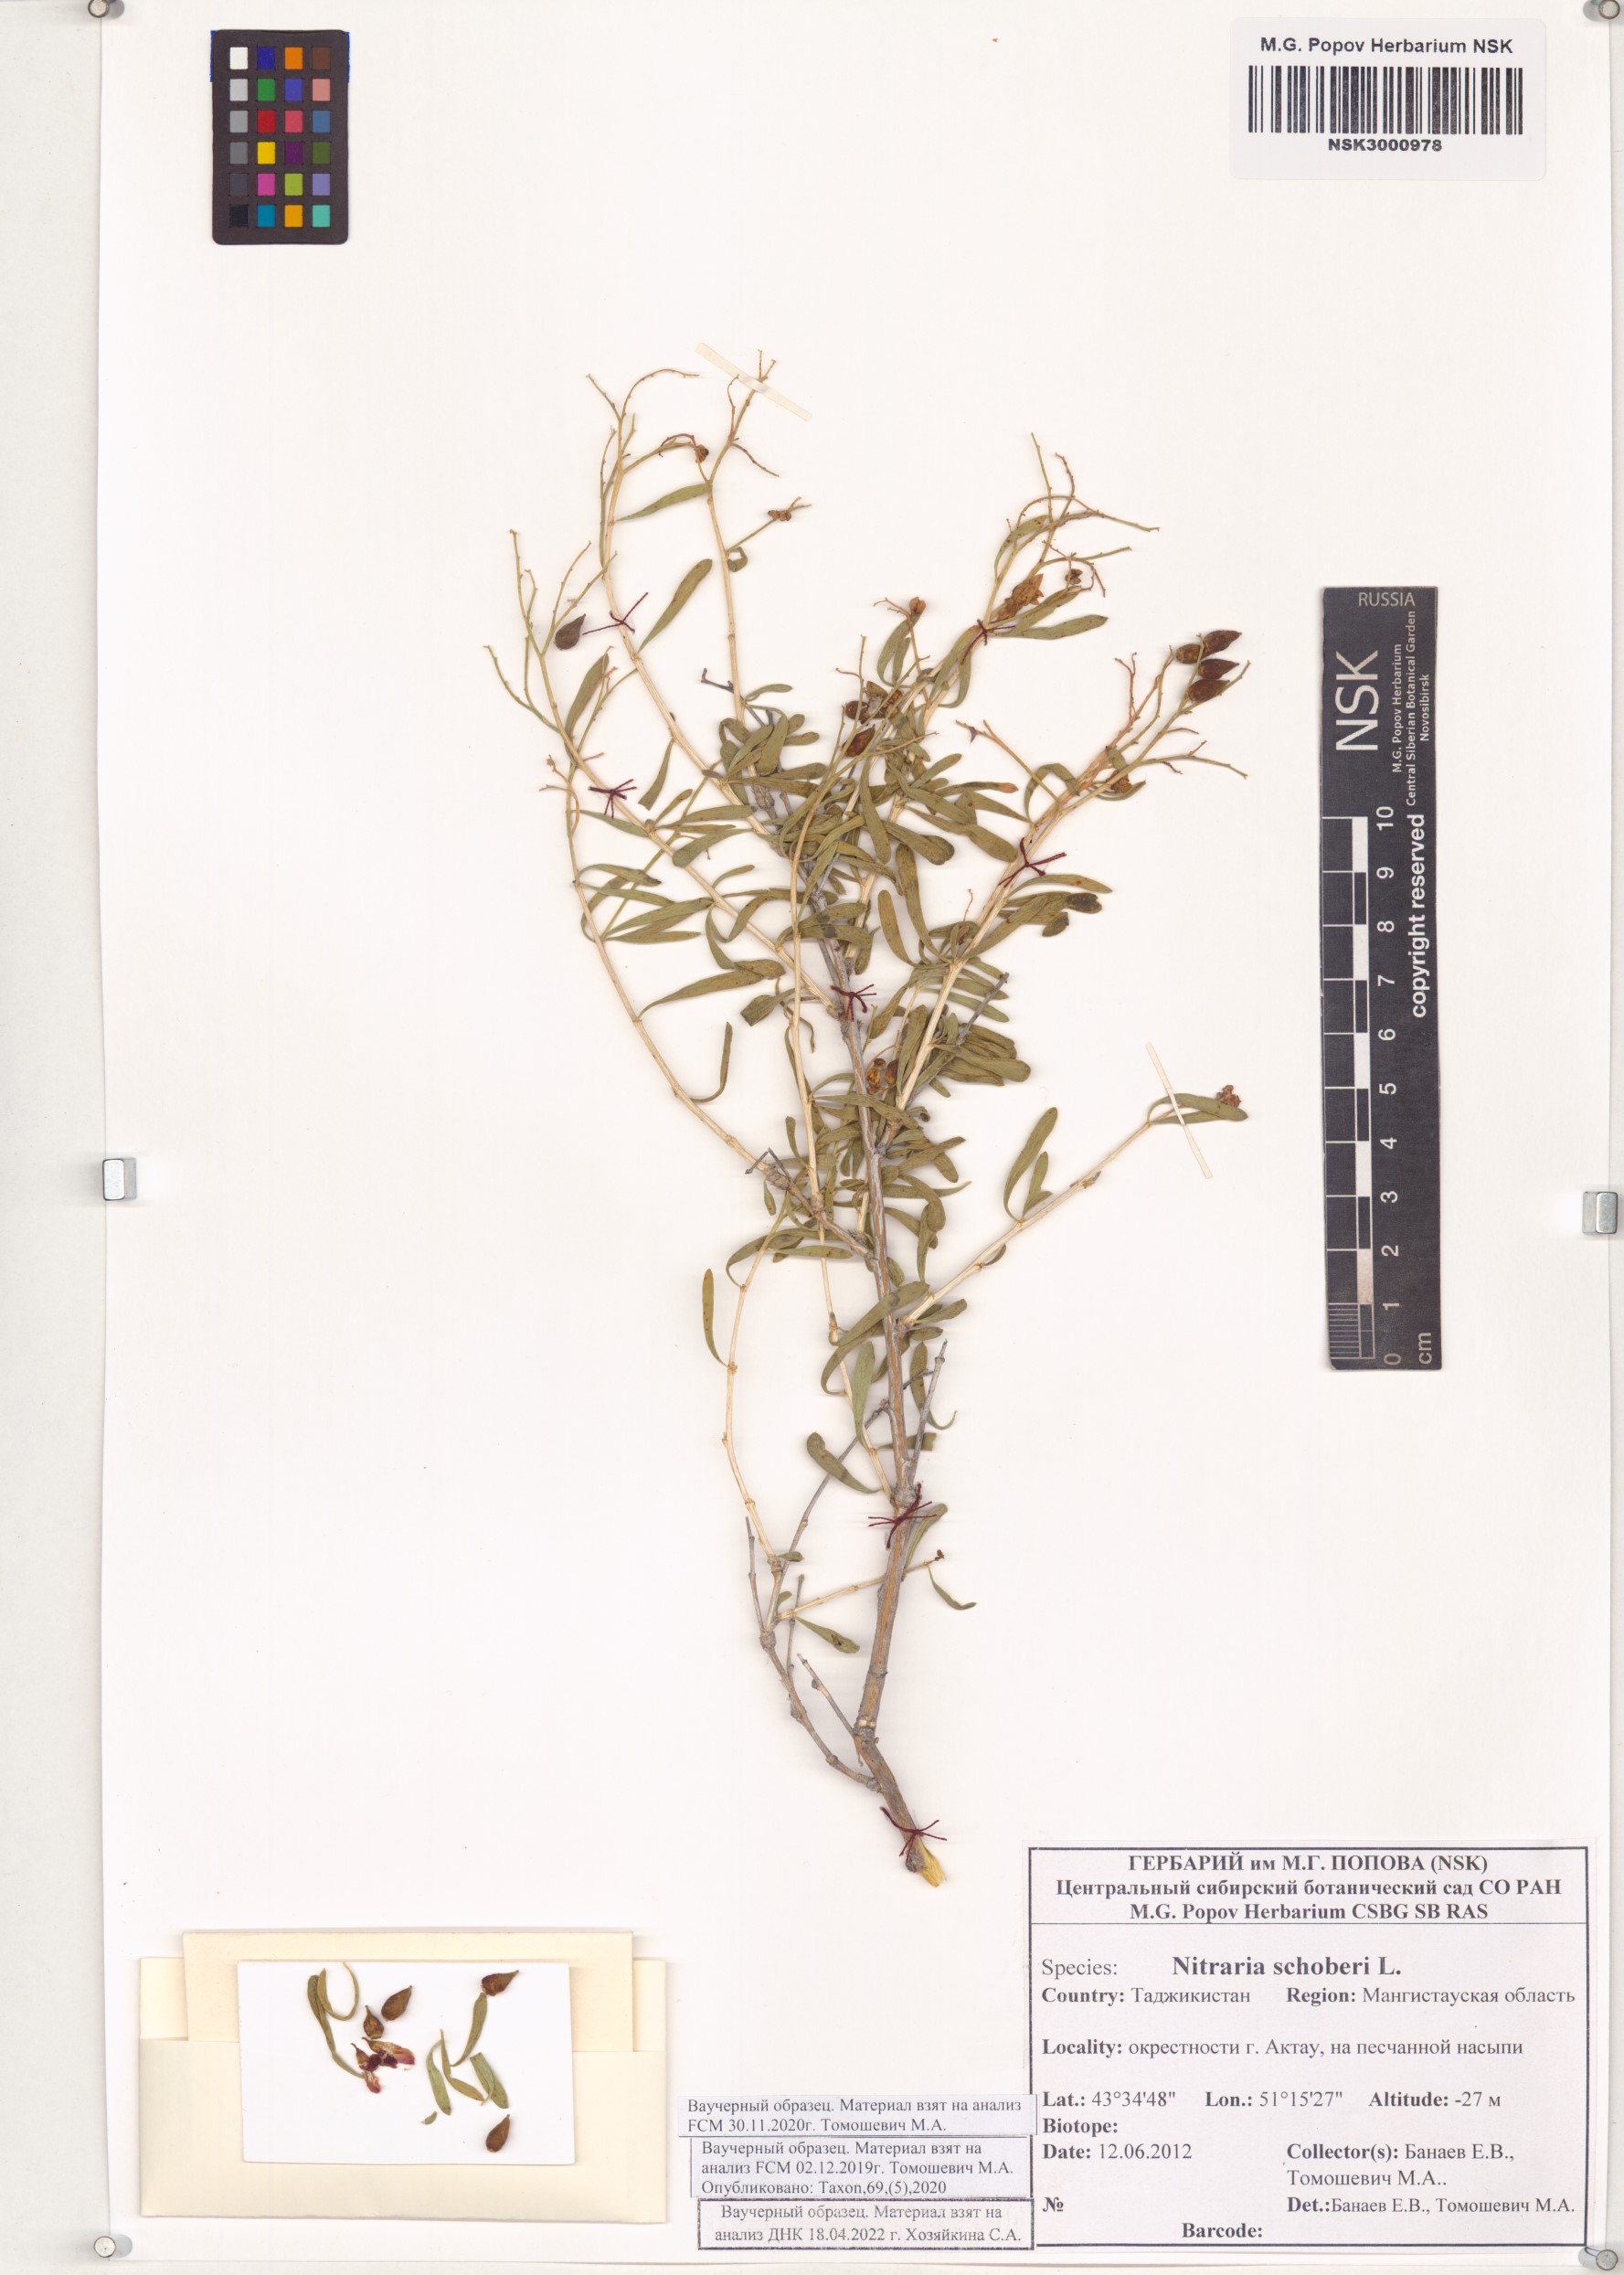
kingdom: Plantae
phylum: Tracheophyta
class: Magnoliopsida
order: Sapindales
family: Nitrariaceae
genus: Nitraria
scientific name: Nitraria schoberi
